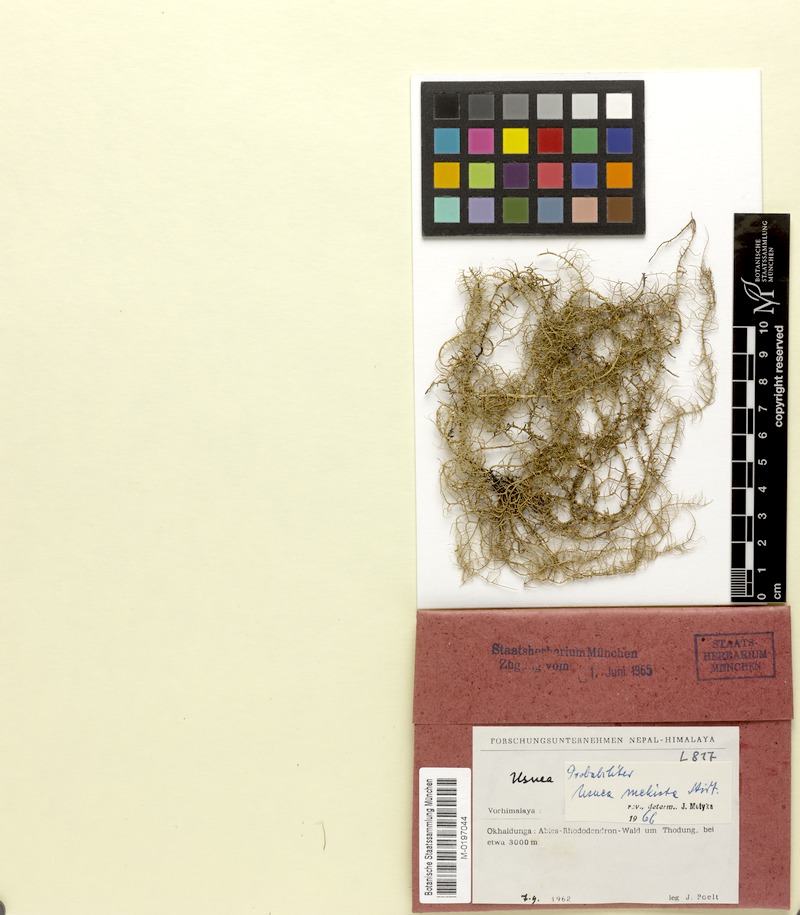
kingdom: Fungi
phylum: Ascomycota
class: Lecanoromycetes
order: Lecanorales
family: Parmeliaceae
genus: Usnea
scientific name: Usnea mekista
